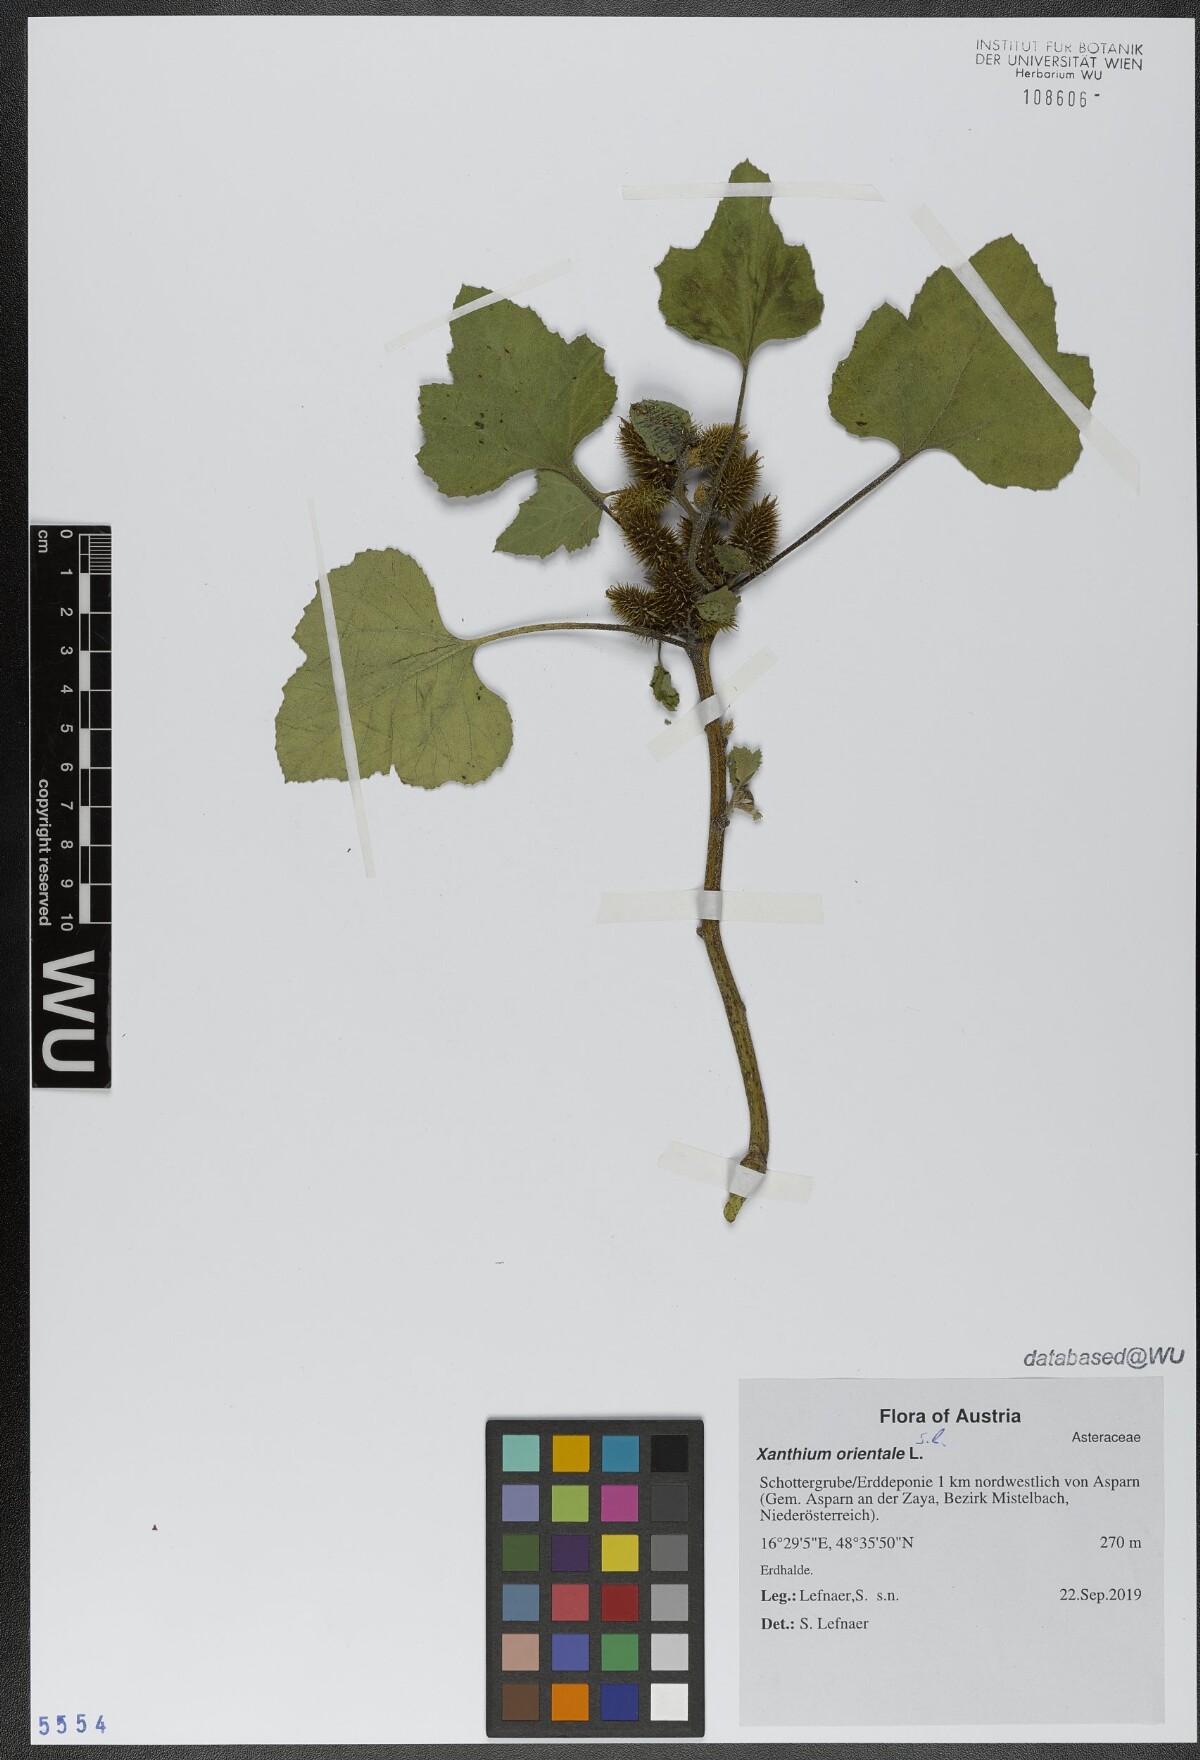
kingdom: Plantae
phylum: Tracheophyta
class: Magnoliopsida
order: Asterales
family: Asteraceae
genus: Xanthium
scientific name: Xanthium orientale
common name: Californian burr
